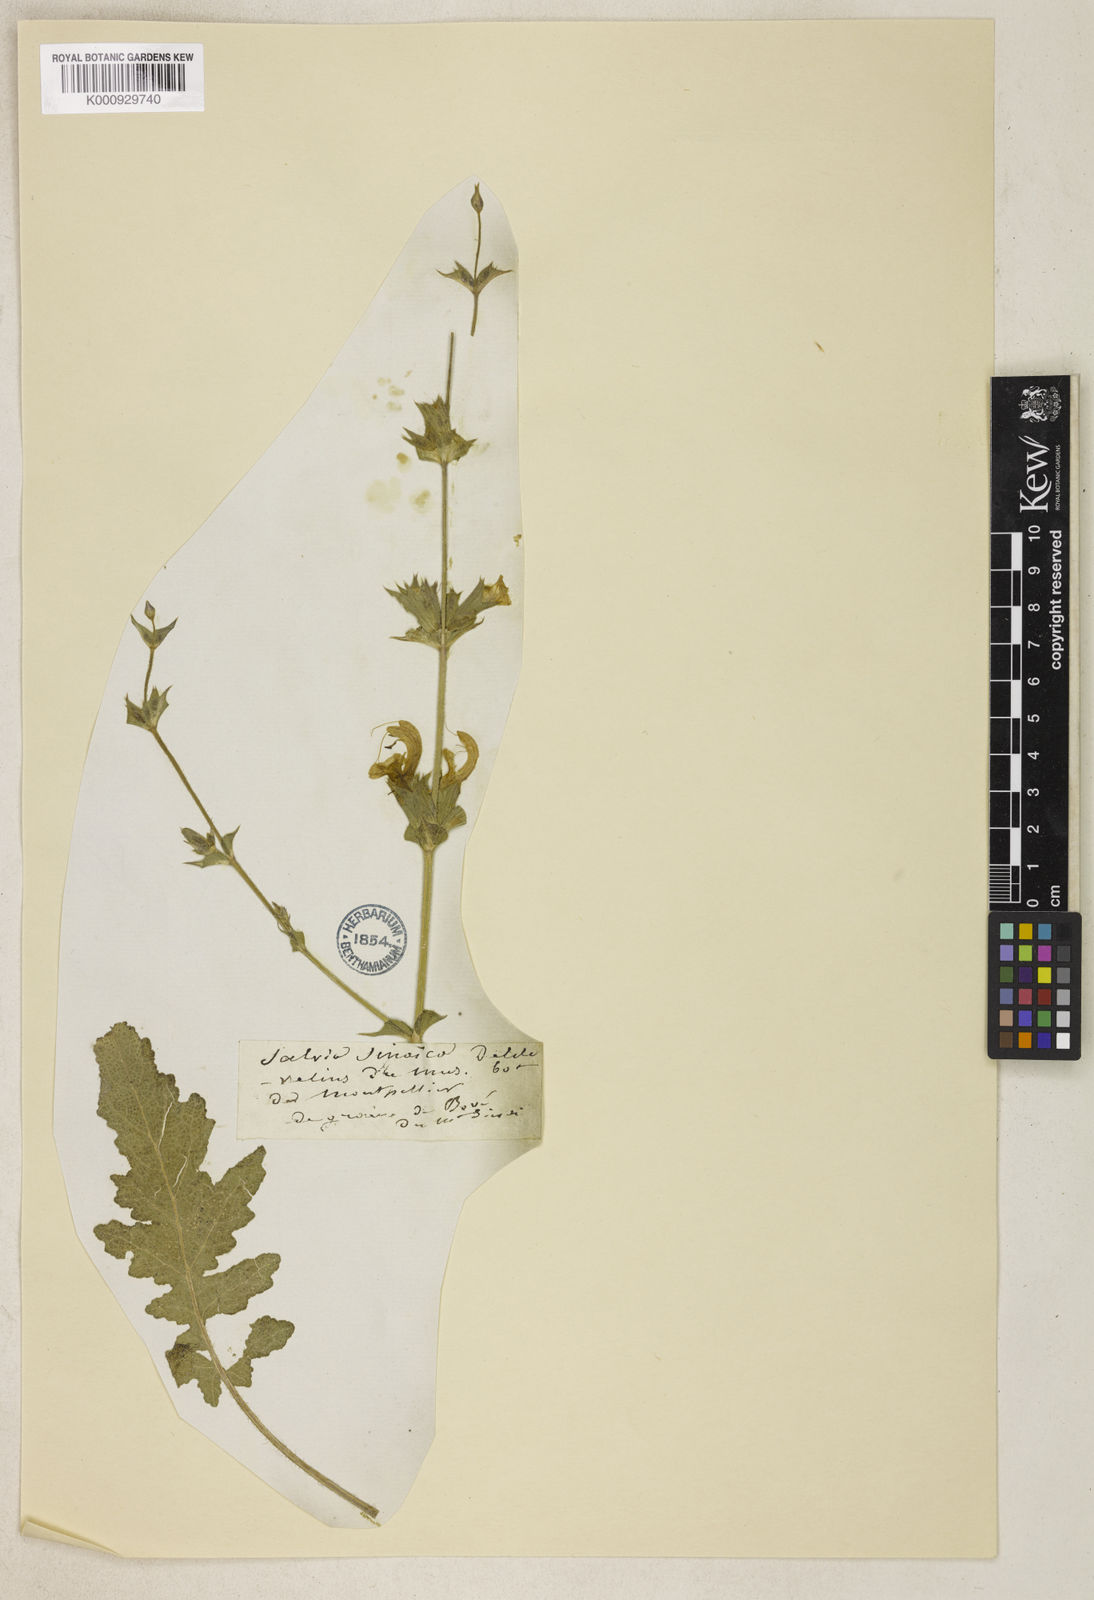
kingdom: Plantae
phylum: Tracheophyta
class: Magnoliopsida
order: Lamiales
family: Lamiaceae
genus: Salvia
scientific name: Salvia palaestina
